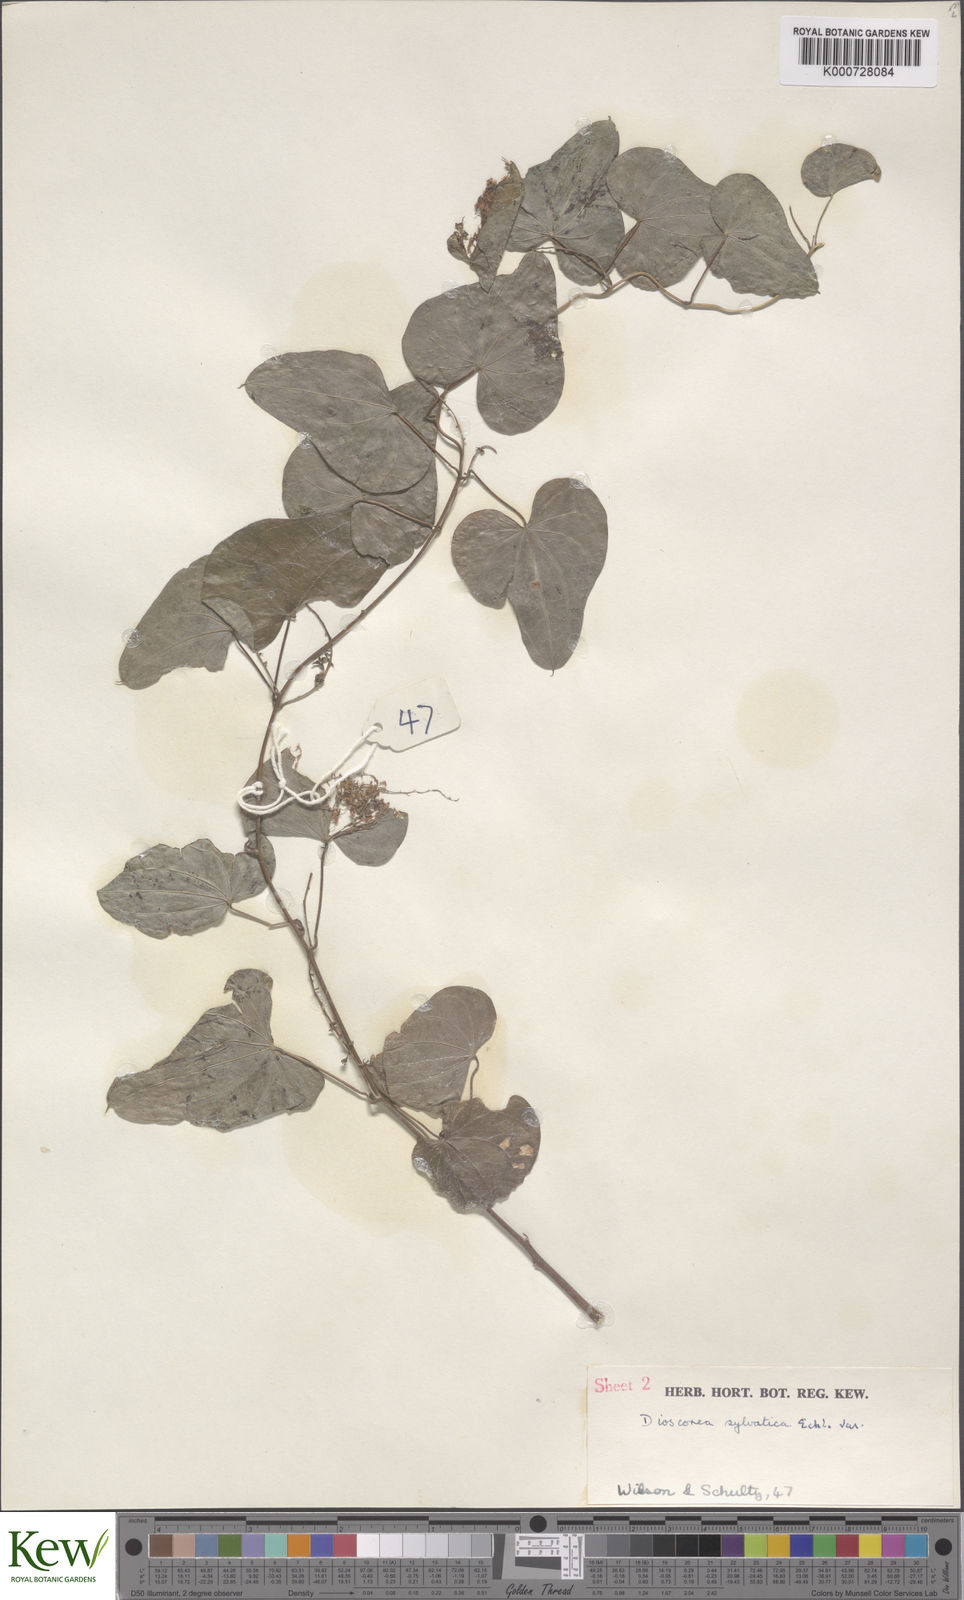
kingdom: Plantae
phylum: Tracheophyta
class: Liliopsida
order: Dioscoreales
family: Dioscoreaceae
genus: Dioscorea
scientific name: Dioscorea sylvatica
